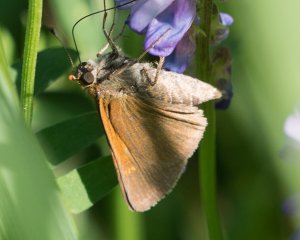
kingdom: Animalia
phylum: Arthropoda
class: Insecta
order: Lepidoptera
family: Hesperiidae
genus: Polites
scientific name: Polites themistocles
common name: Tawny-edged Skipper
